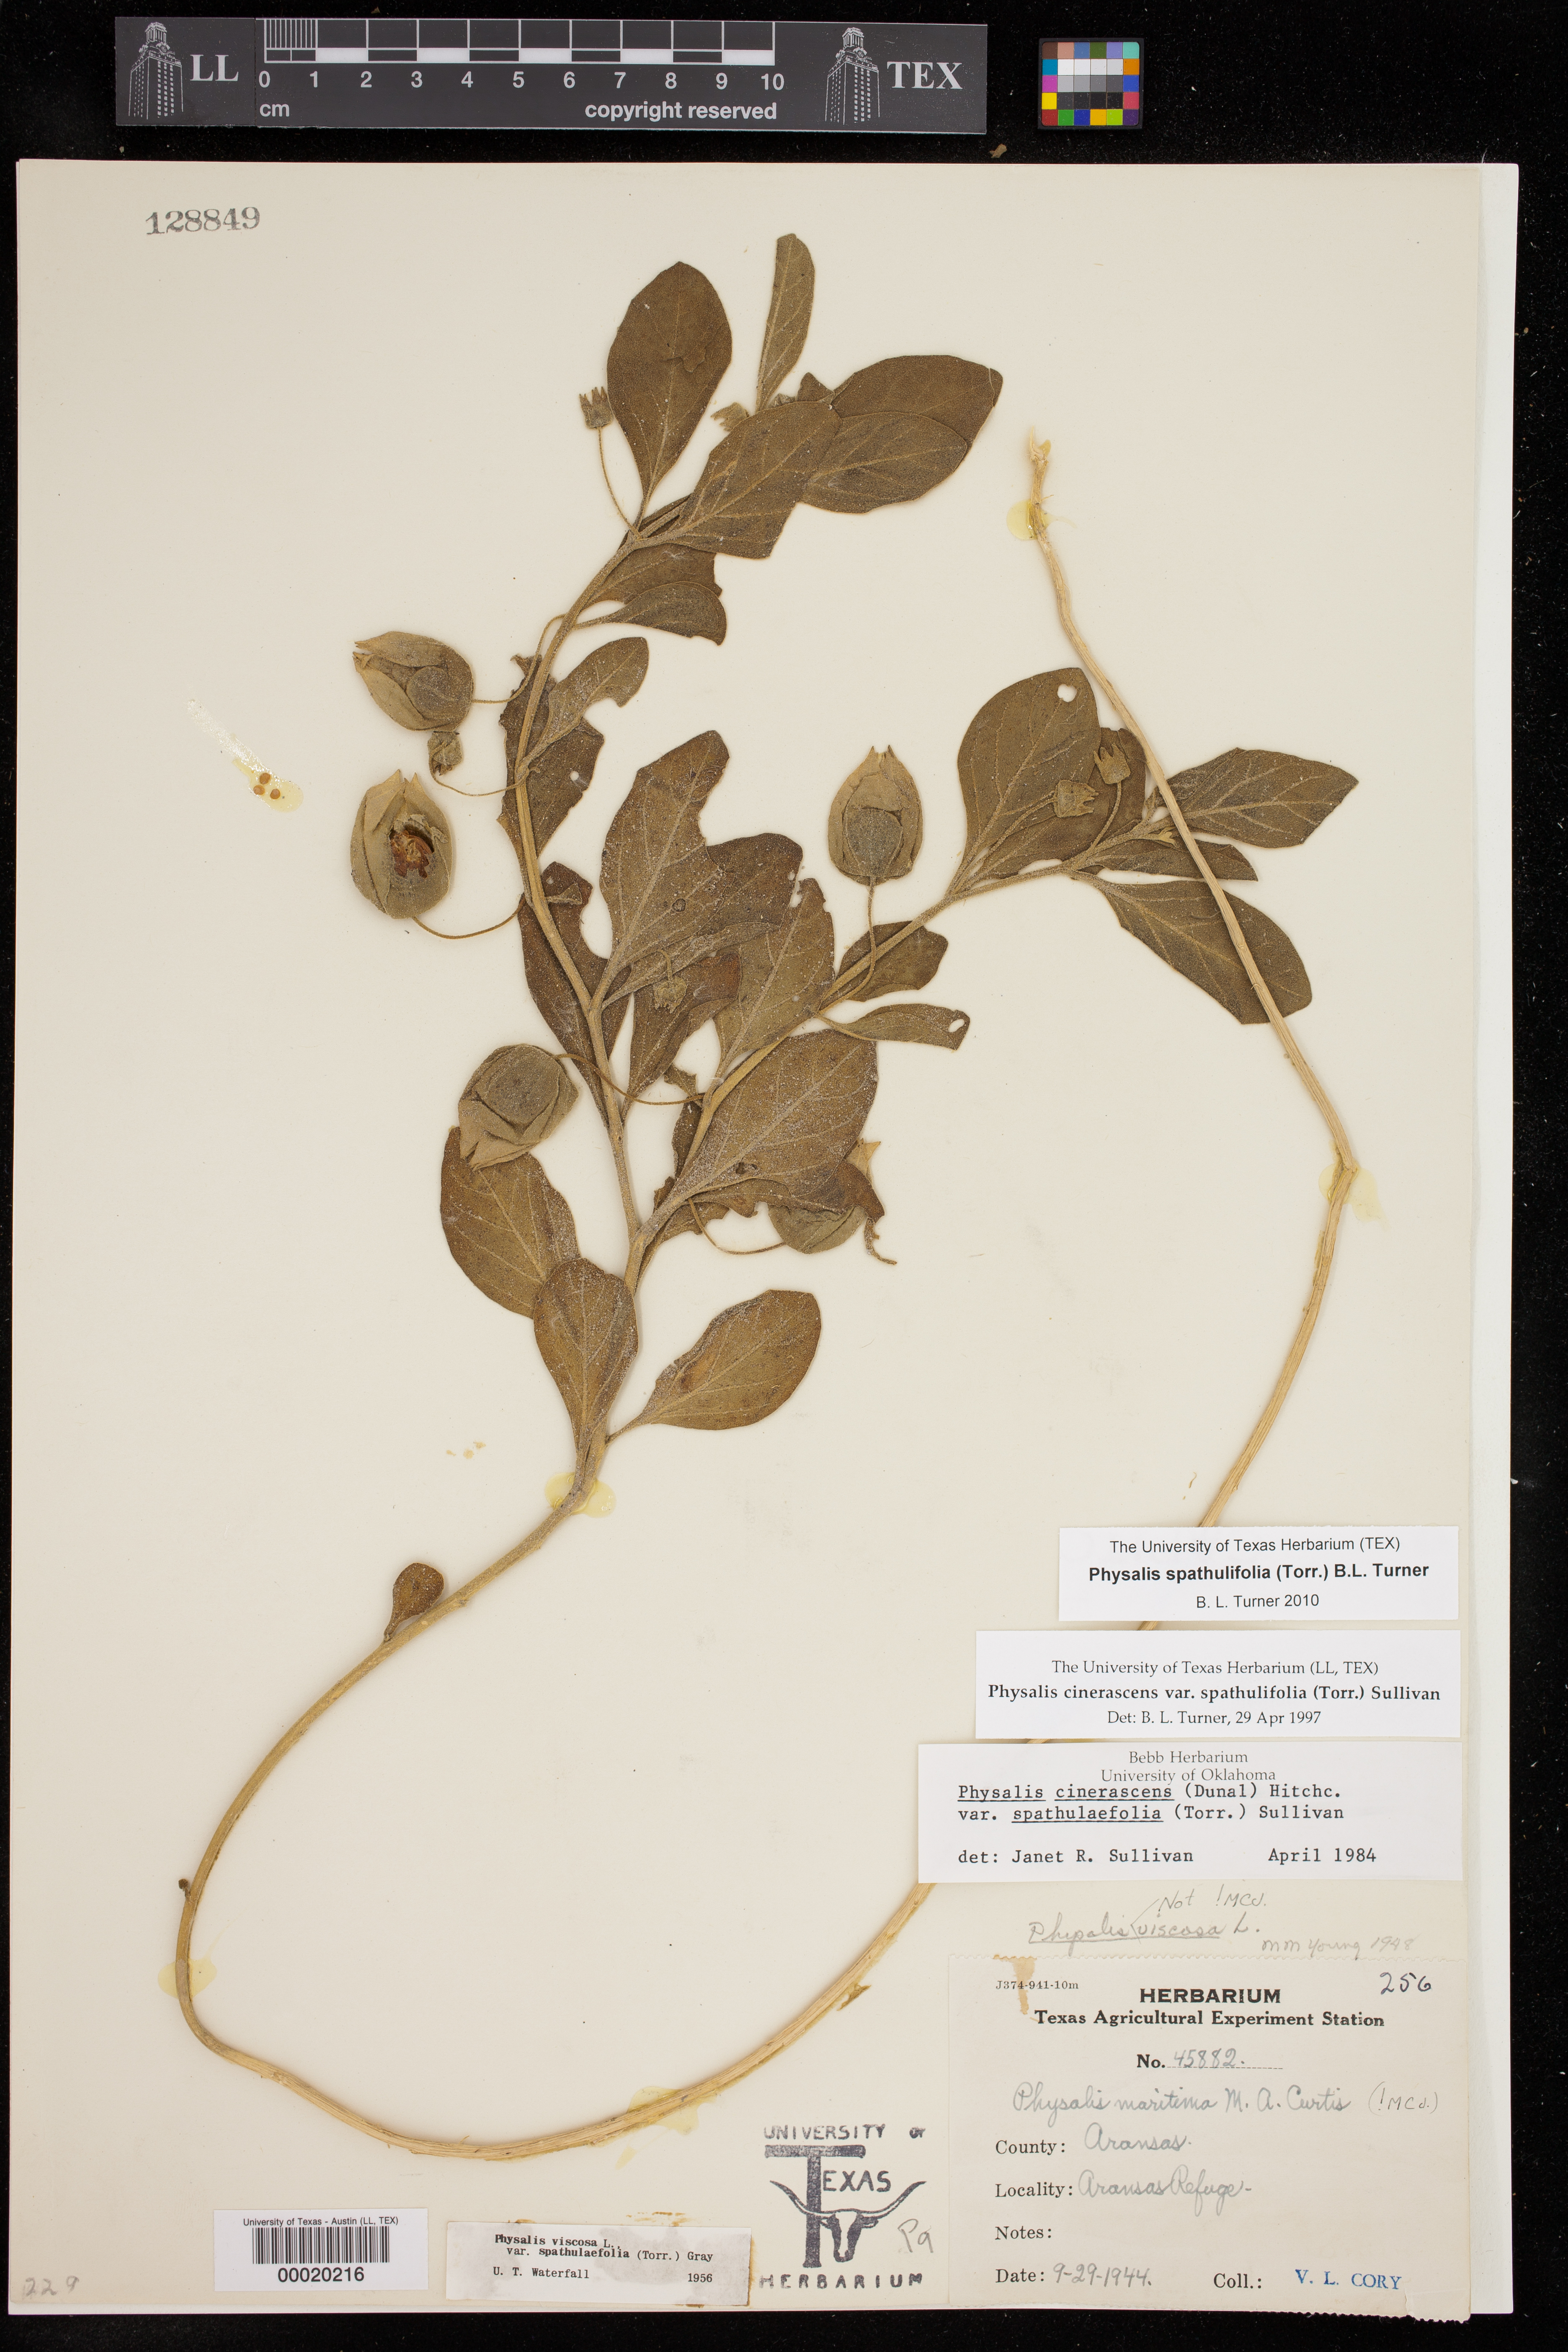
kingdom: Plantae
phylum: Tracheophyta
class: Magnoliopsida
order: Solanales
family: Solanaceae
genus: Physalis
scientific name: Physalis cinerascens
